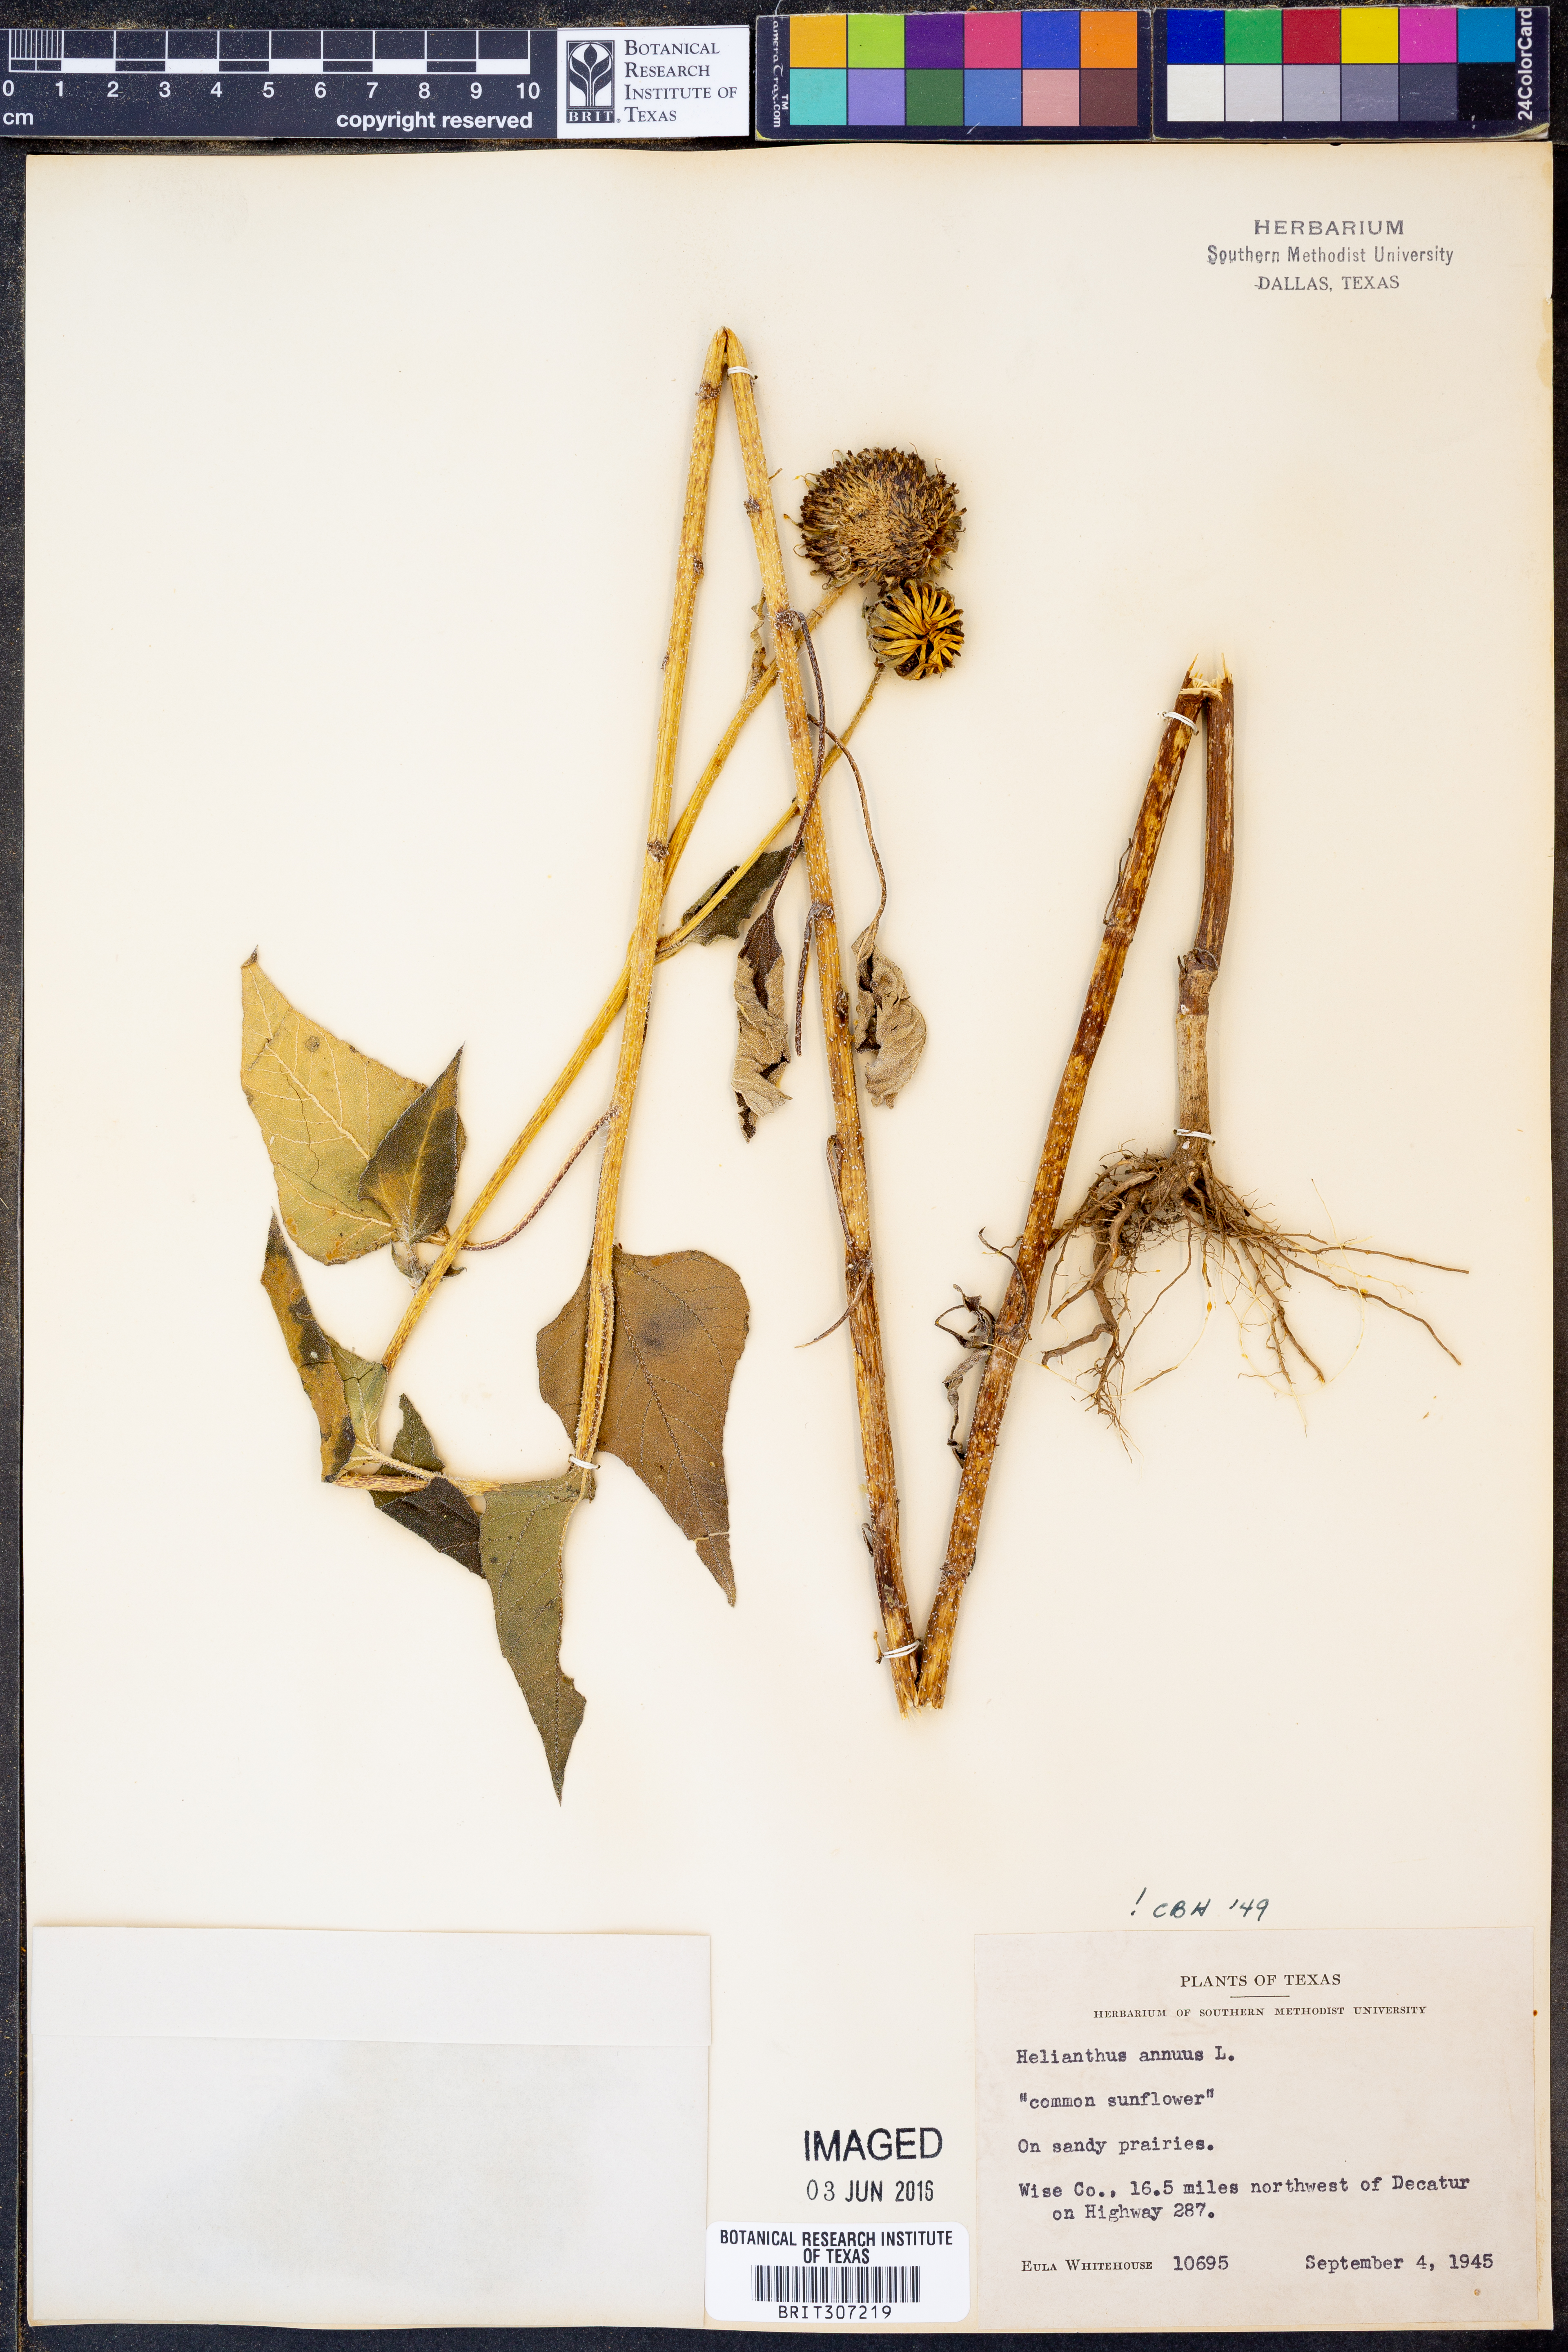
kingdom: Plantae
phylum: Tracheophyta
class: Magnoliopsida
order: Asterales
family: Asteraceae
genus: Helianthus
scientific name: Helianthus annuus
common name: Sunflower
